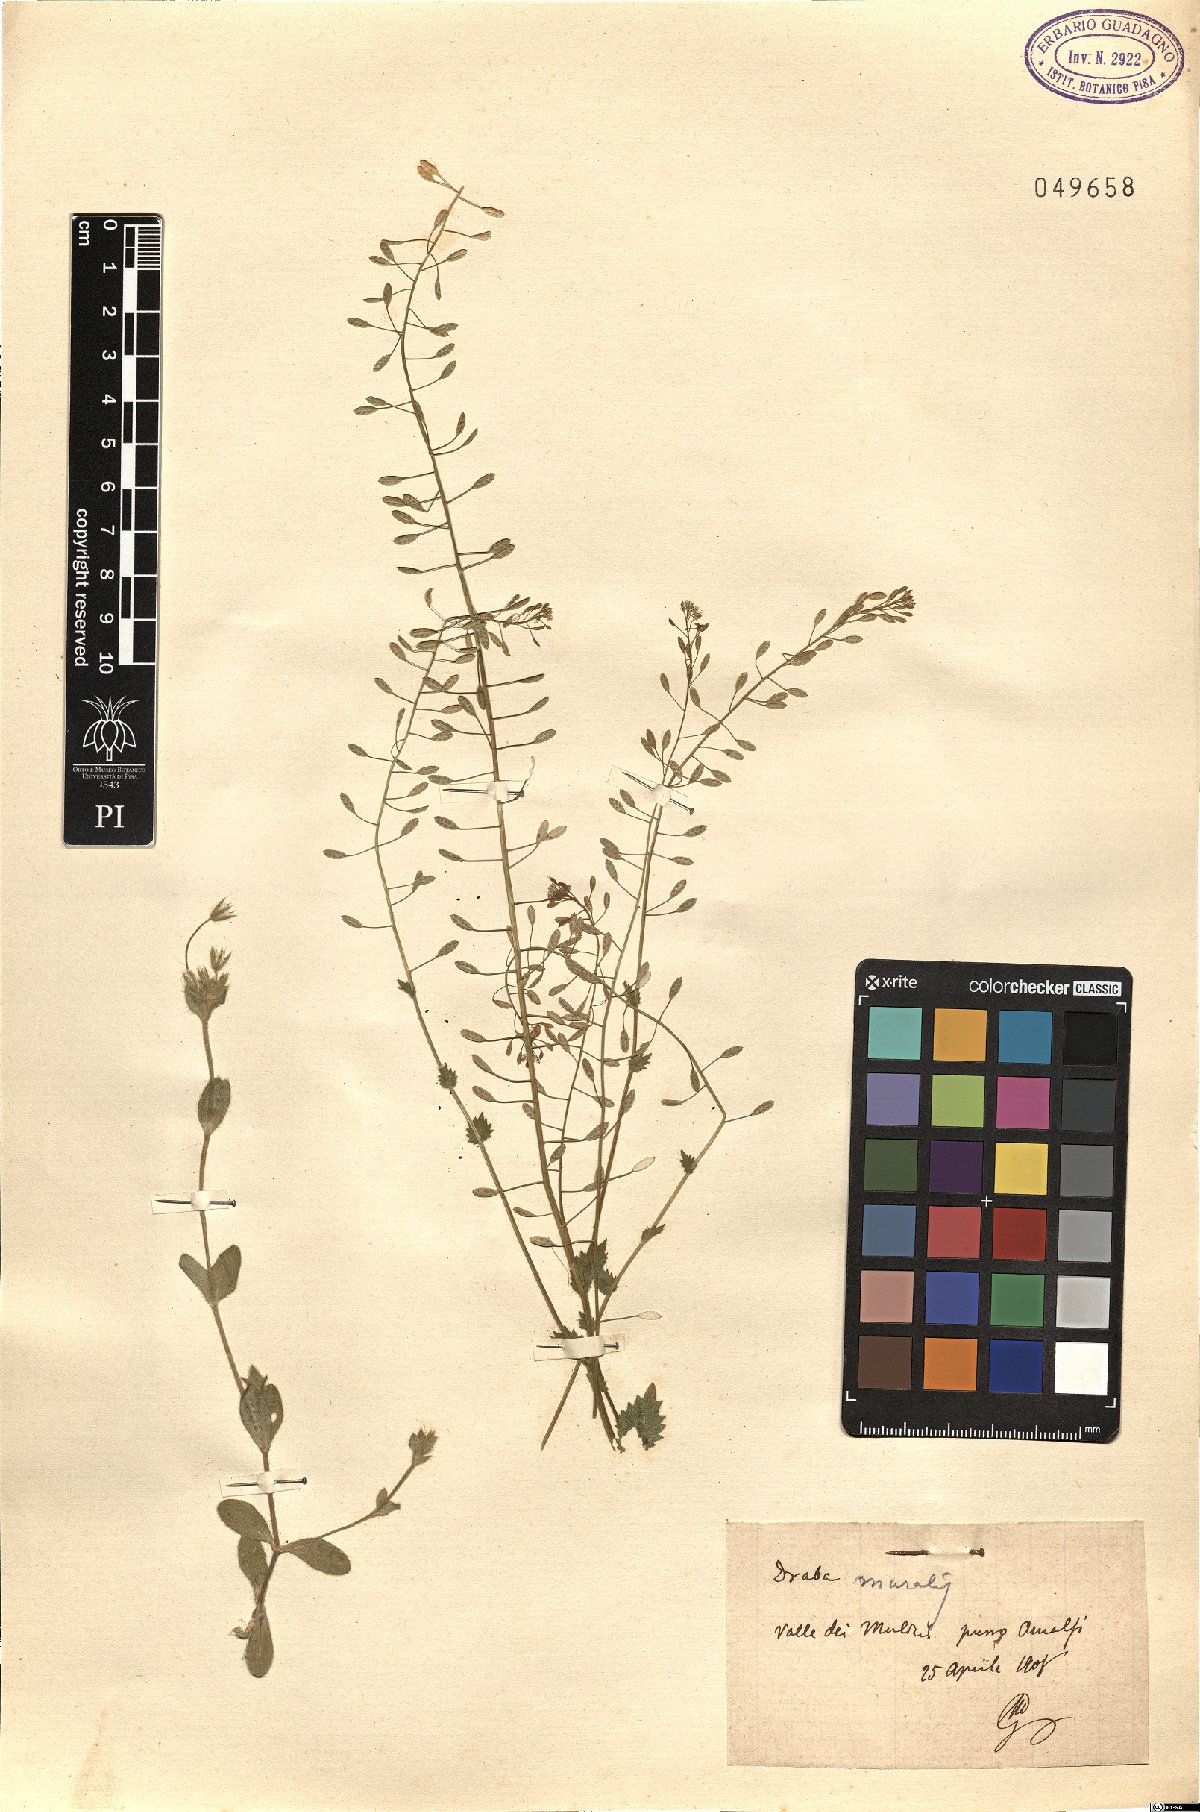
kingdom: Plantae
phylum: Tracheophyta
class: Magnoliopsida
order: Brassicales
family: Brassicaceae
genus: Drabella
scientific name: Drabella muralis
